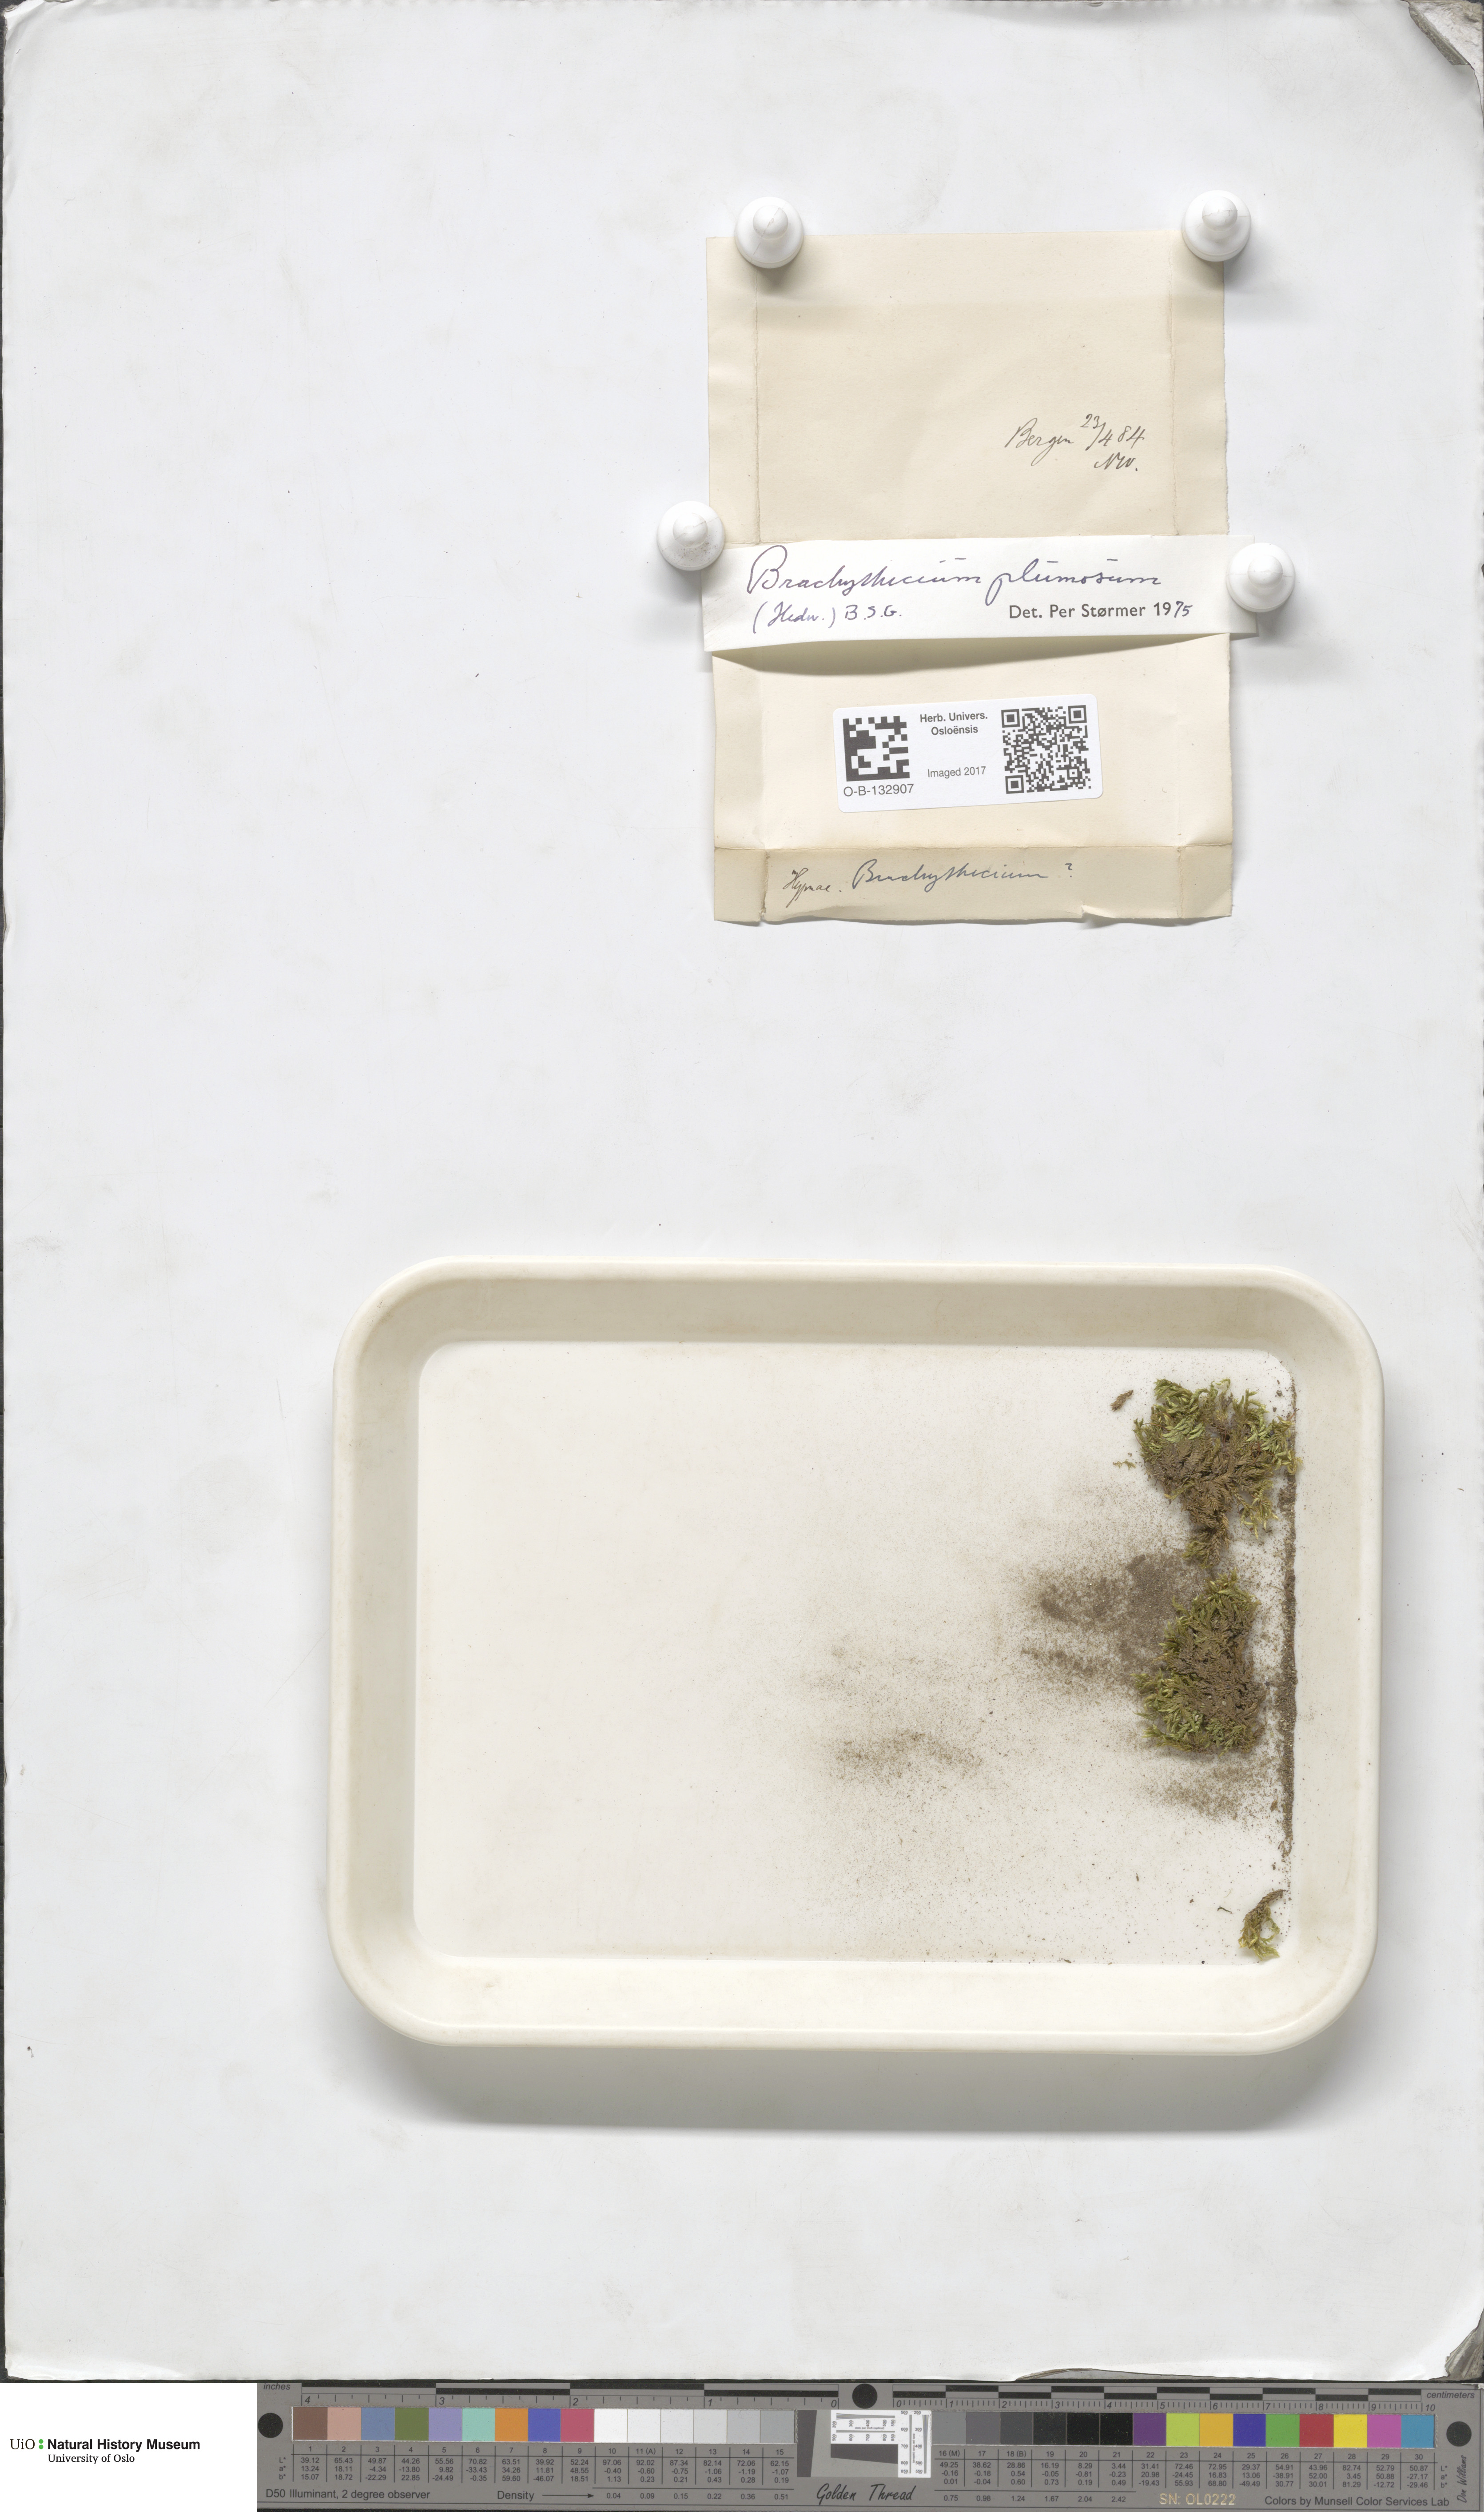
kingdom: Plantae
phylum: Bryophyta
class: Bryopsida
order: Hypnales
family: Brachytheciaceae
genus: Sciuro-hypnum
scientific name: Sciuro-hypnum plumosum
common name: Rusty feather-moss
